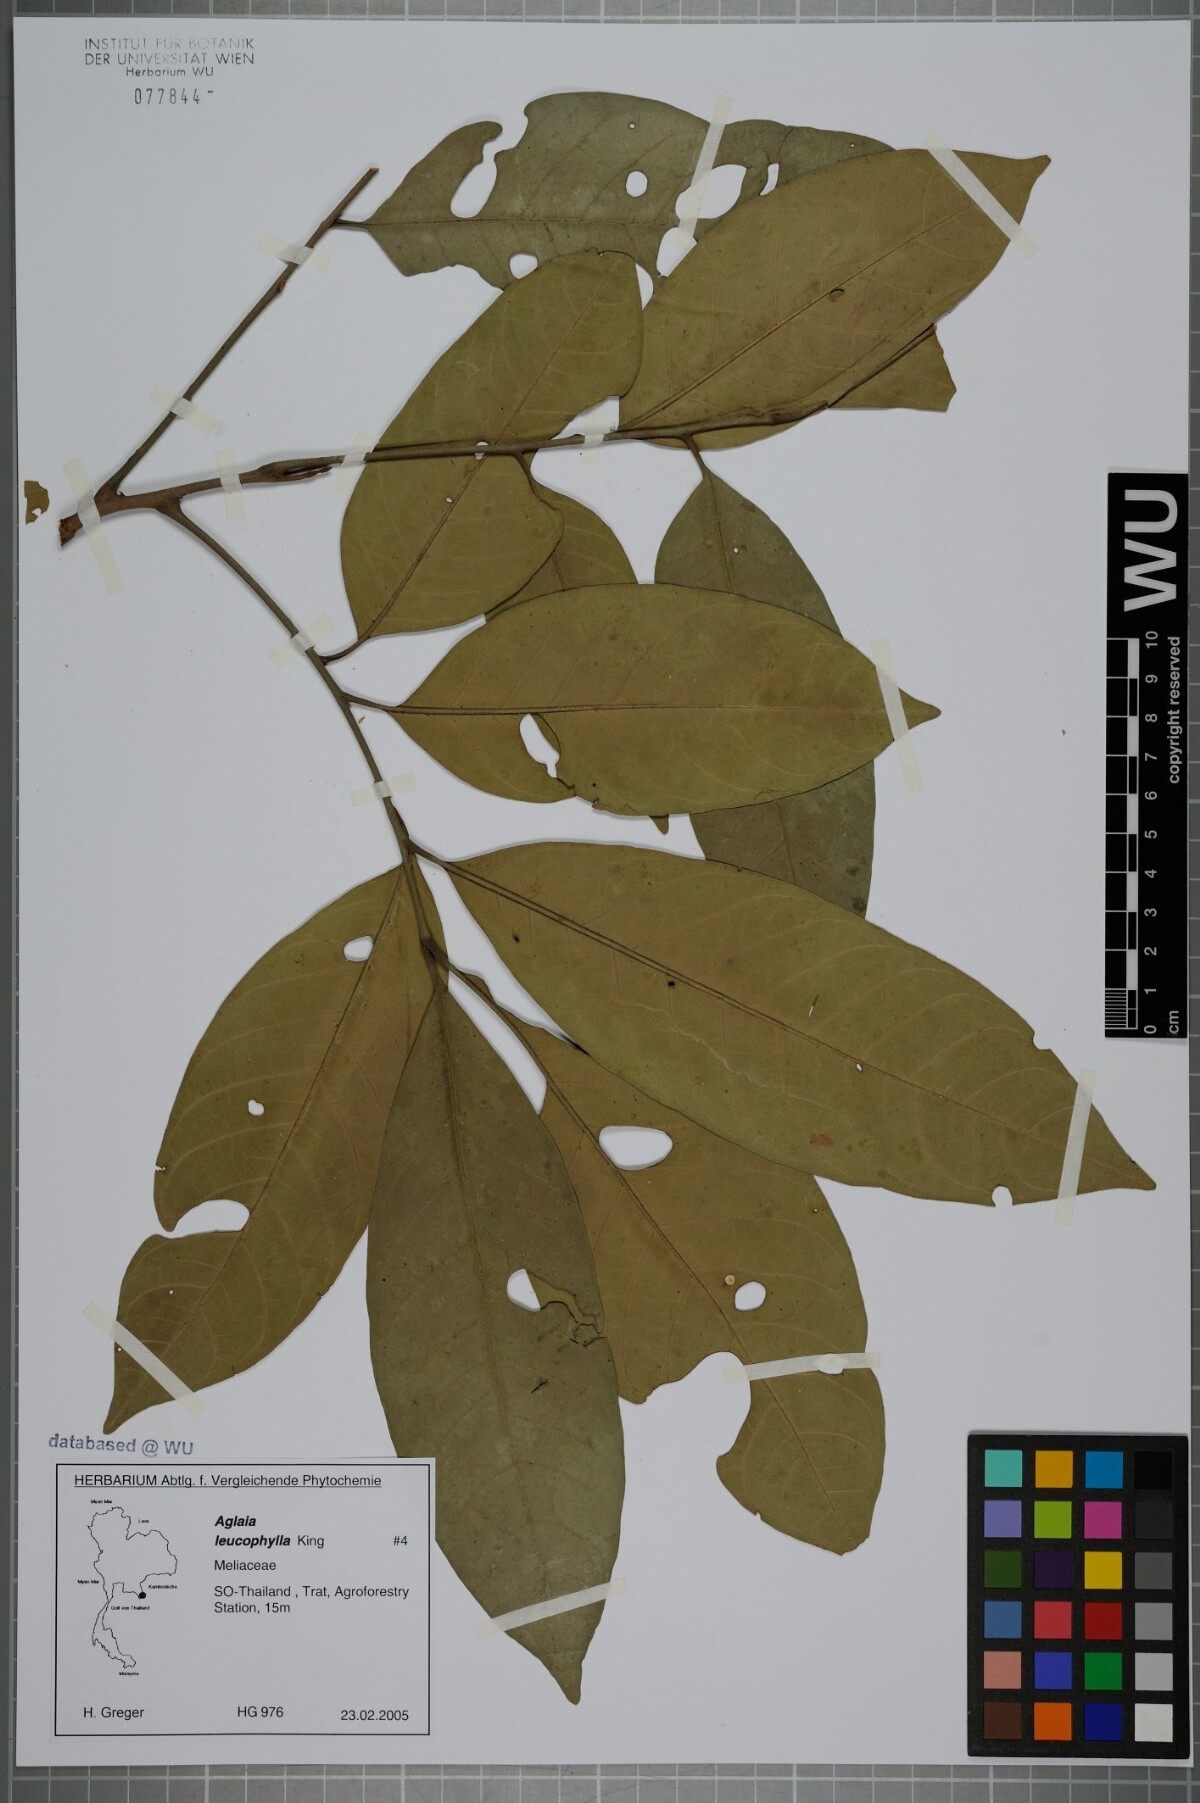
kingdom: Plantae
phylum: Tracheophyta
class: Magnoliopsida
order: Sapindales
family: Meliaceae
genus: Aglaia
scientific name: Aglaia leucophylla
